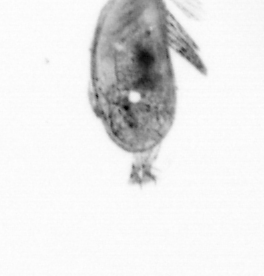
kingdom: Animalia
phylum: Arthropoda
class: Maxillopoda
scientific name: Maxillopoda
